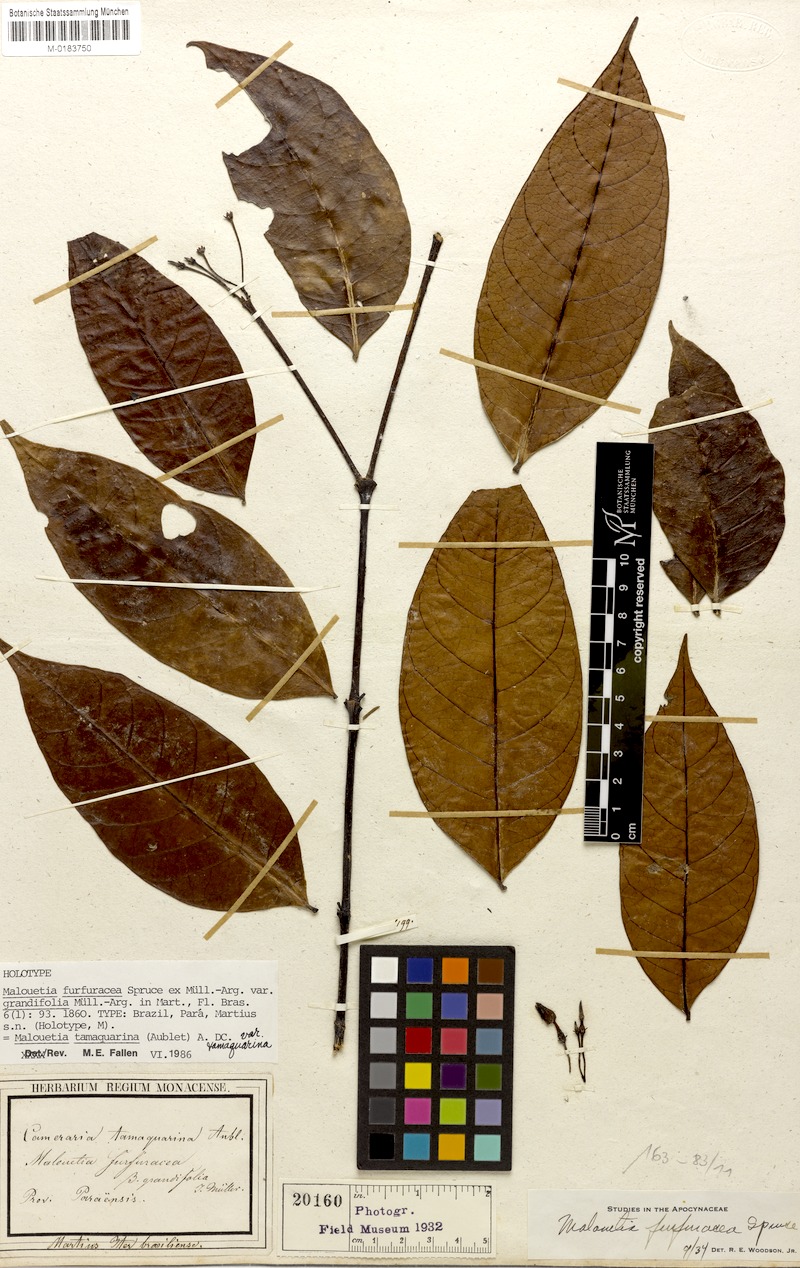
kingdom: Plantae
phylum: Tracheophyta
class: Magnoliopsida
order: Gentianales
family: Apocynaceae
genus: Malouetia
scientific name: Malouetia tamaquarina
